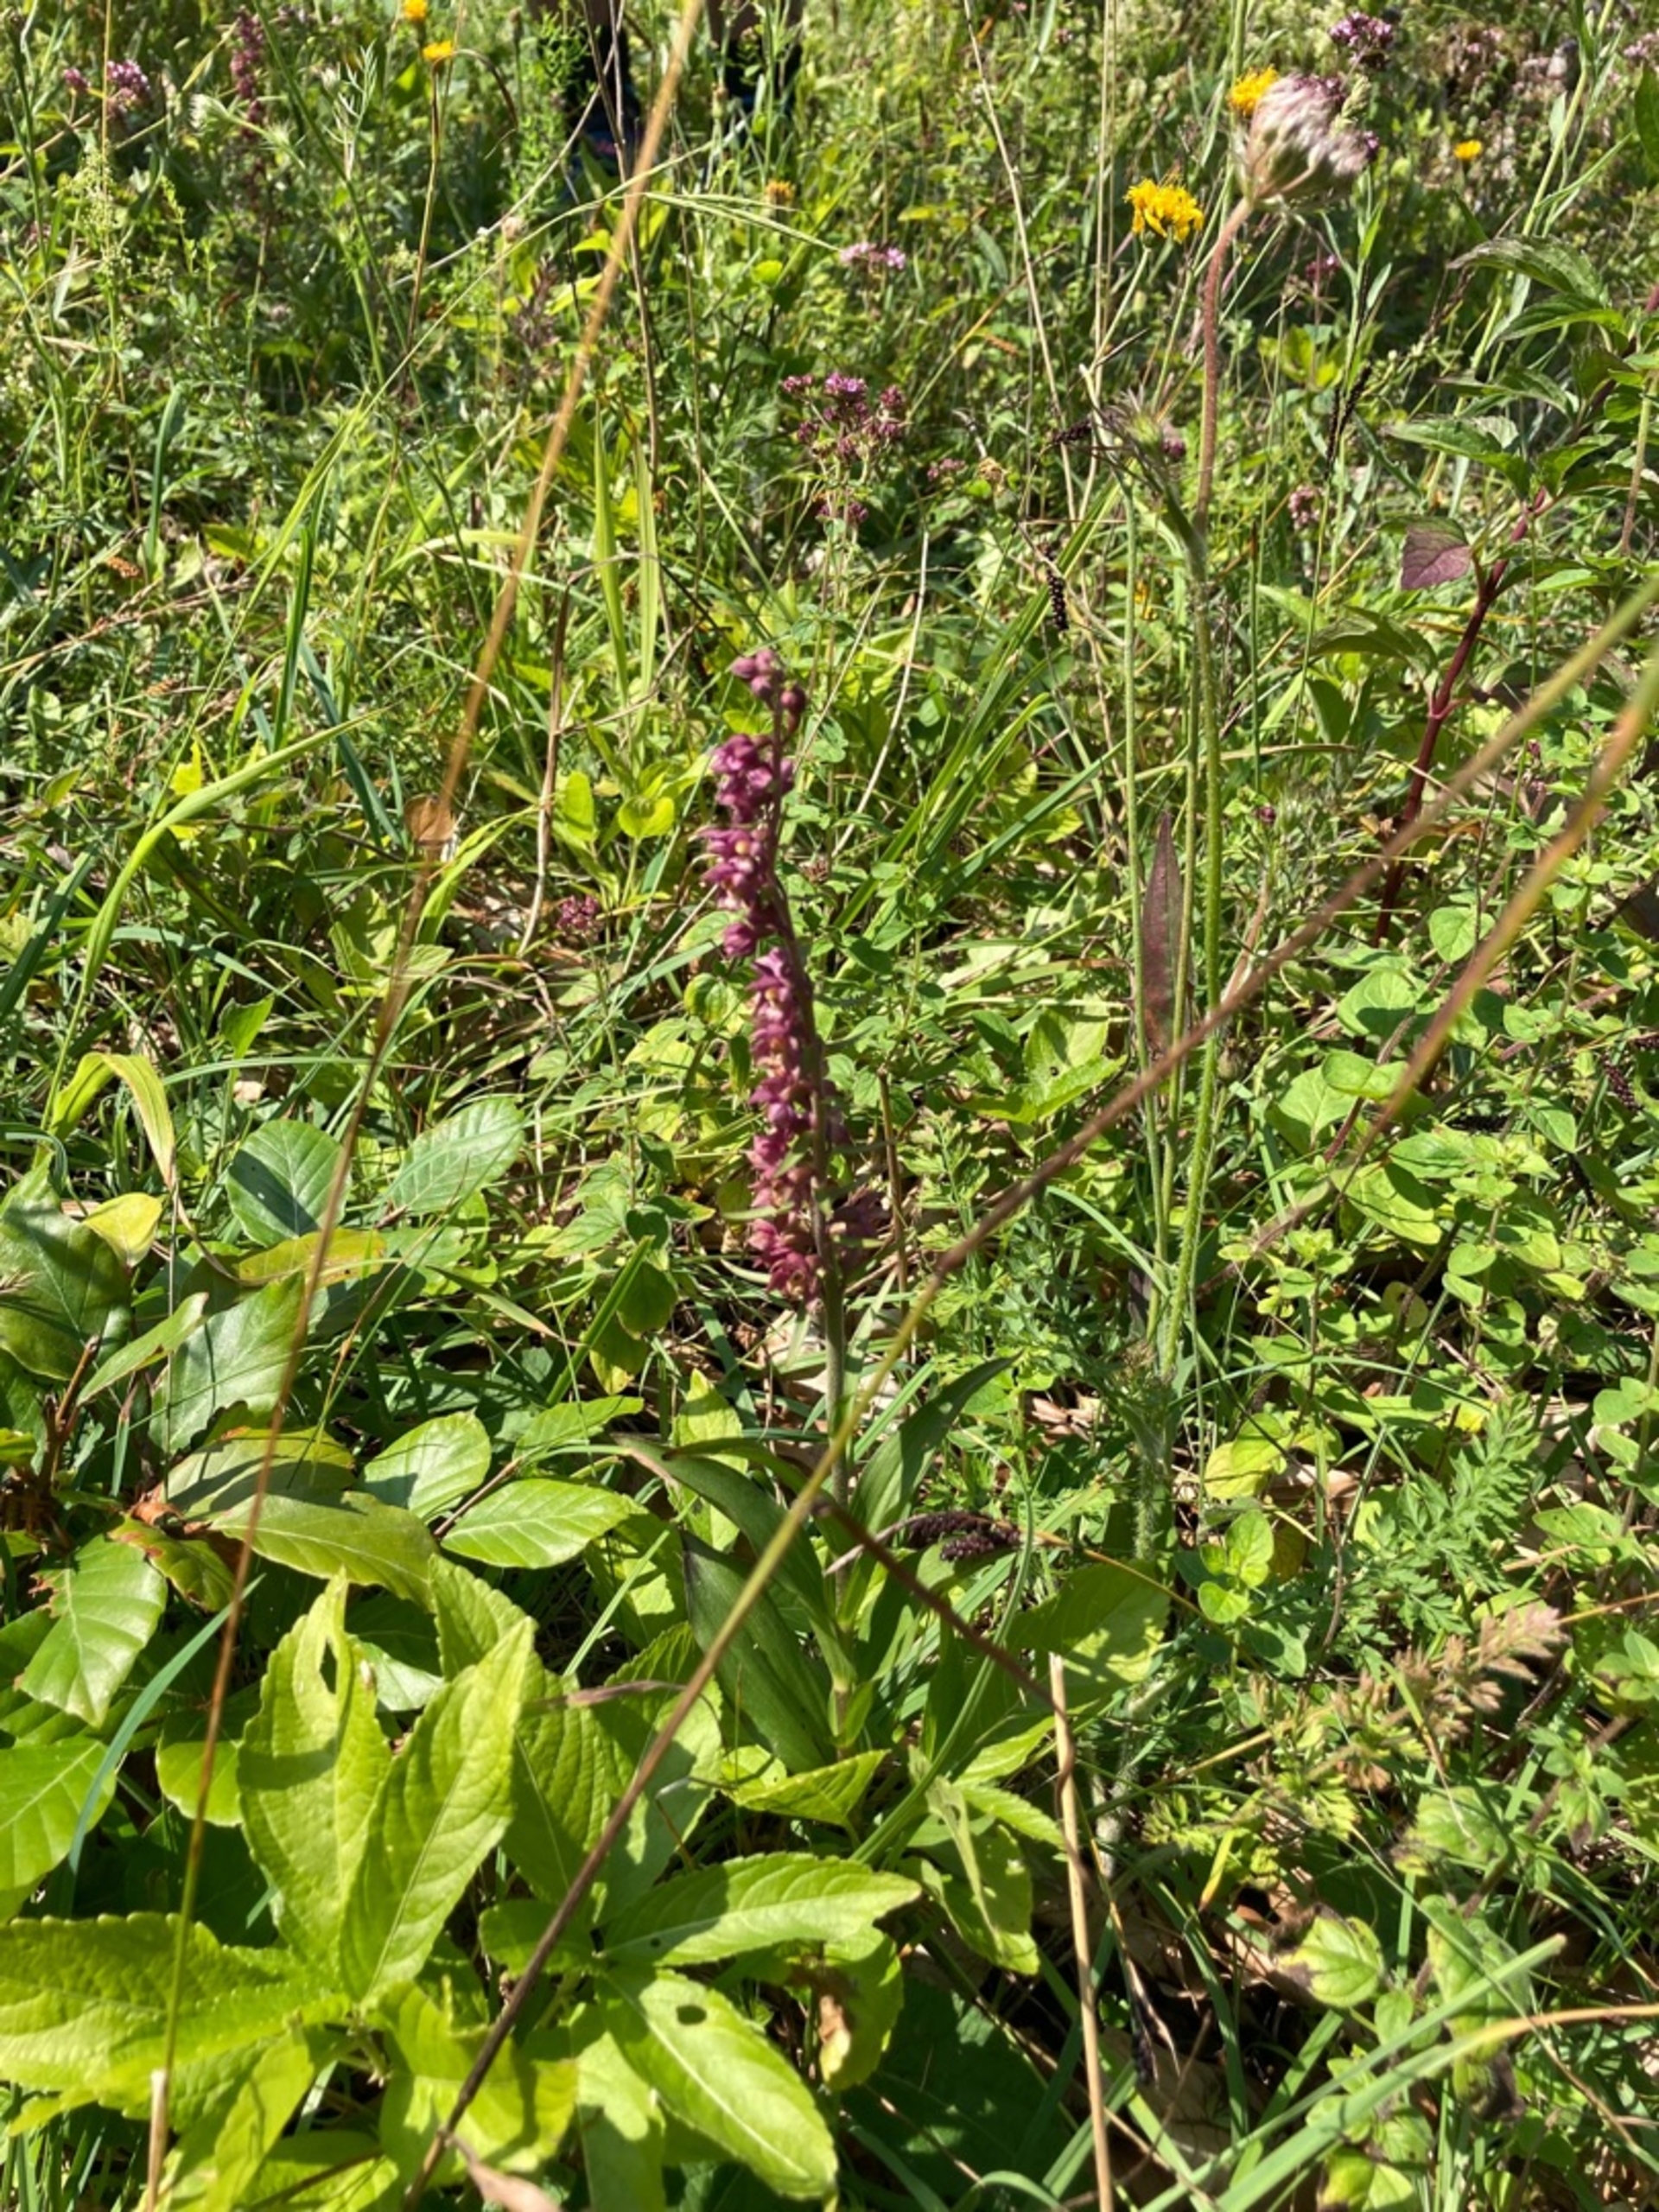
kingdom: Plantae
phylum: Tracheophyta
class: Liliopsida
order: Asparagales
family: Orchidaceae
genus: Epipactis
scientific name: Epipactis atrorubens
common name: Rød hullæbe
